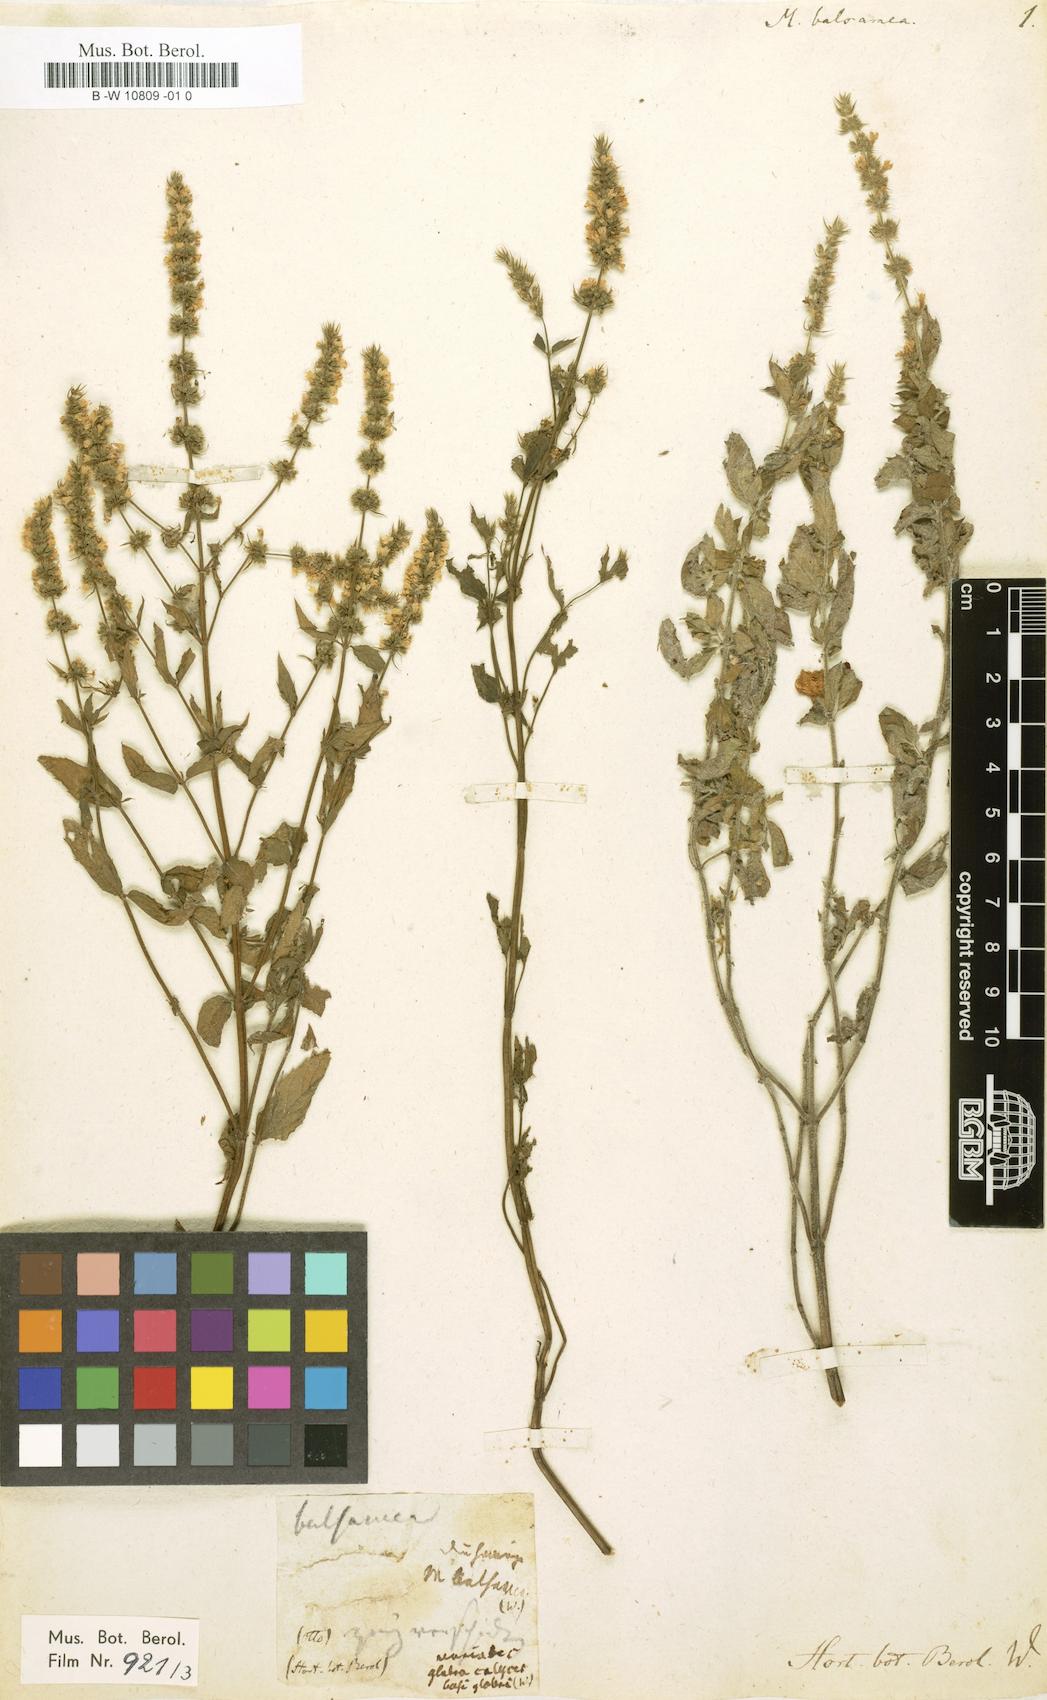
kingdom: Plantae
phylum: Tracheophyta
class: Magnoliopsida
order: Lamiales
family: Lamiaceae
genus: Mentha
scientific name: Mentha
